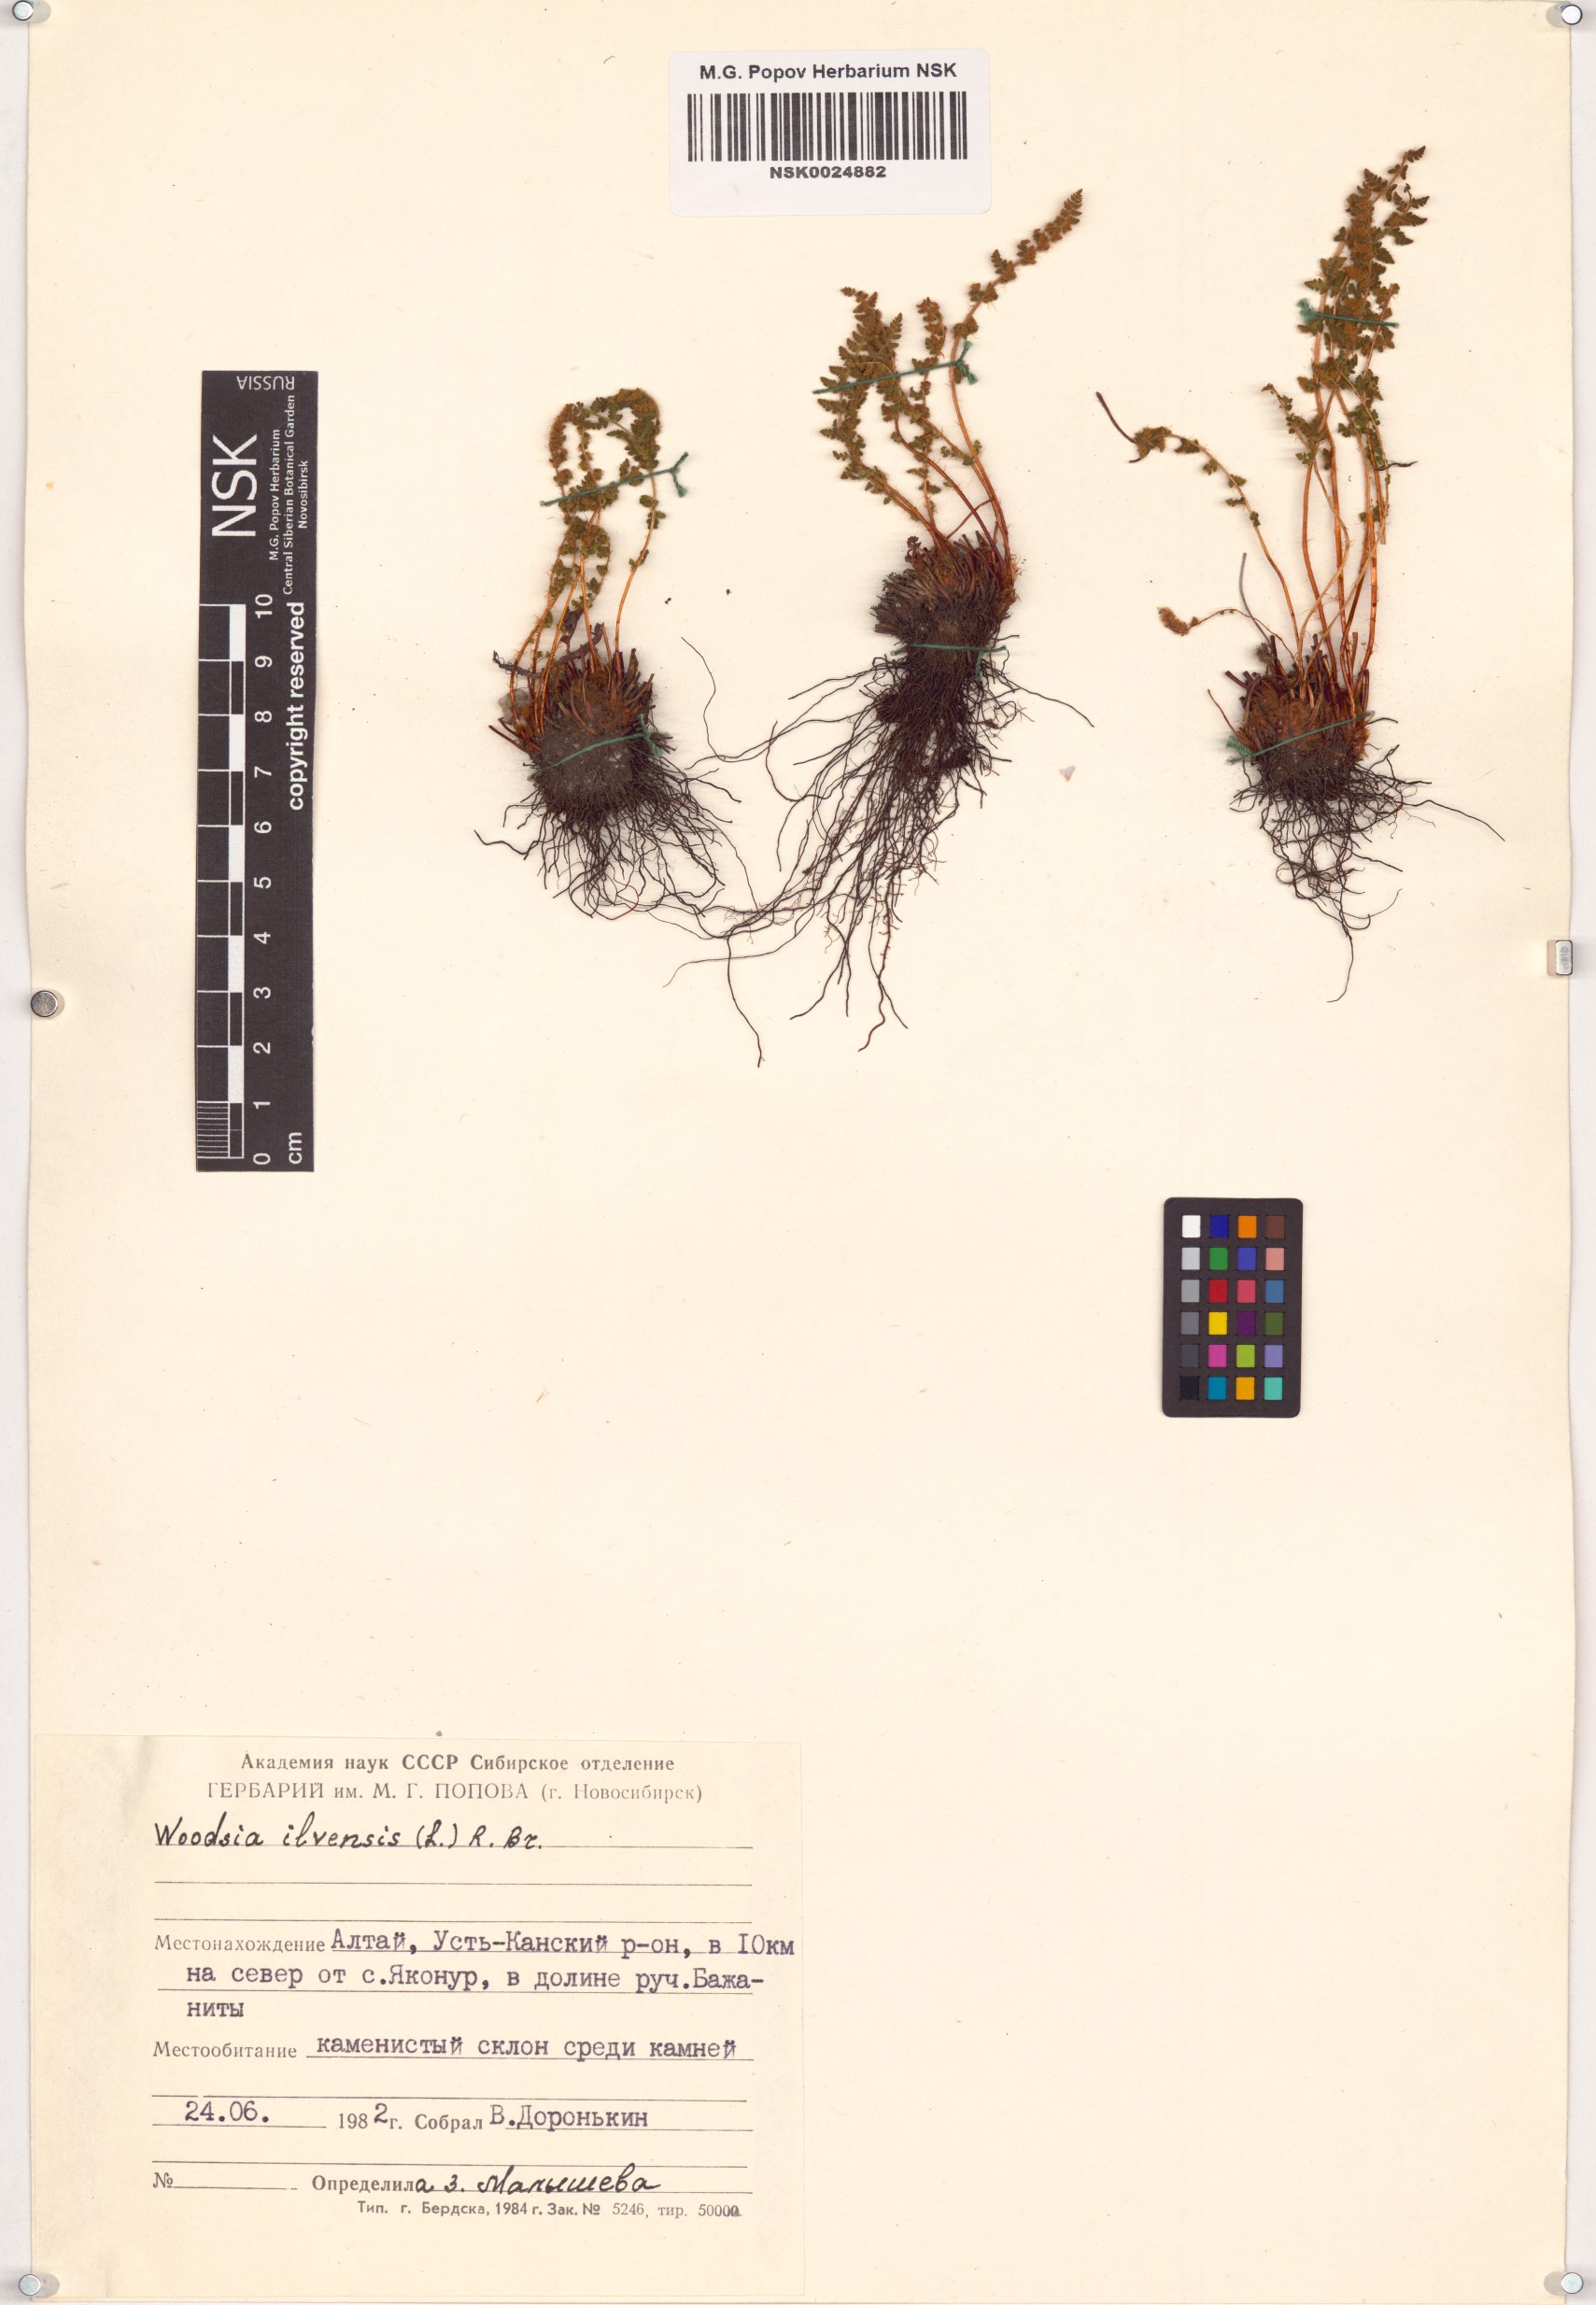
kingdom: Plantae
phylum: Tracheophyta
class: Polypodiopsida
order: Polypodiales
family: Woodsiaceae
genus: Woodsia
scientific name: Woodsia ilvensis
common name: Fragrant woodsia
